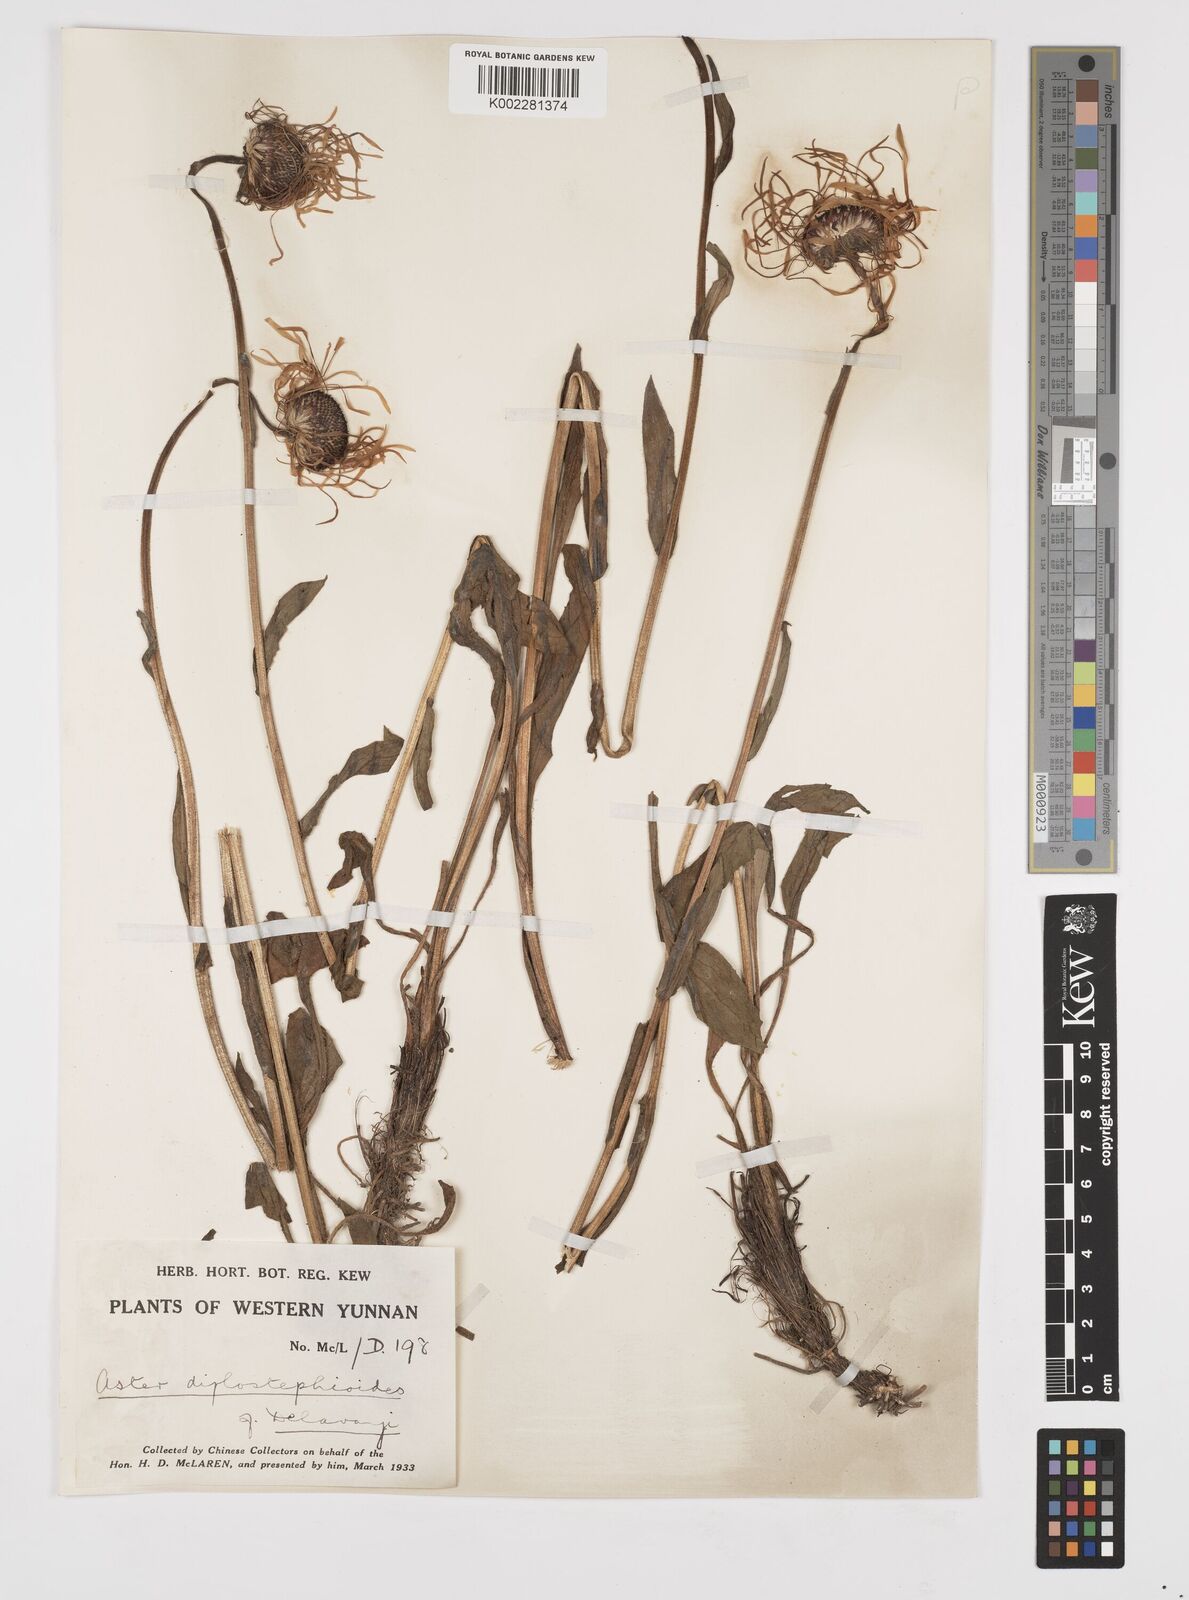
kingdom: Plantae
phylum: Tracheophyta
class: Magnoliopsida
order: Asterales
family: Asteraceae
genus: Tibetiodes
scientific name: Tibetiodes diplostephioides
